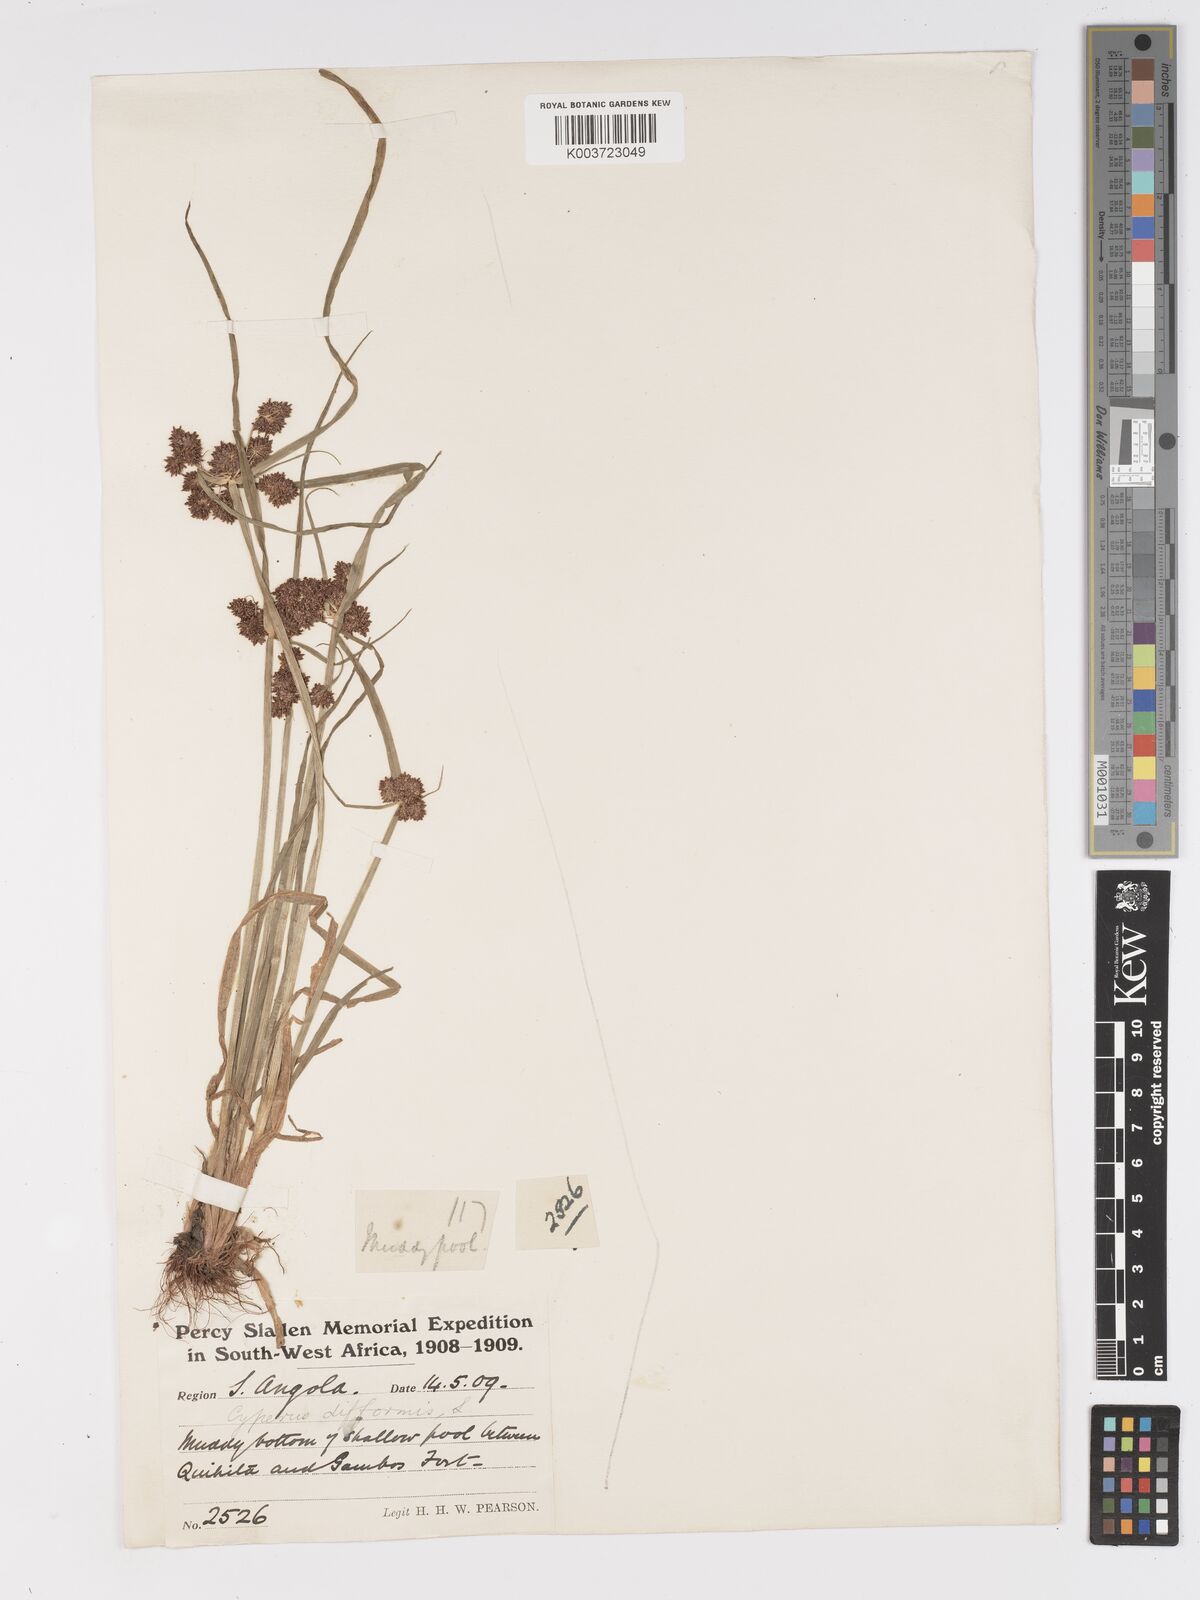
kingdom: Plantae
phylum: Tracheophyta
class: Liliopsida
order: Poales
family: Cyperaceae
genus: Cyperus
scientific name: Cyperus difformis
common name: Variable flatsedge
